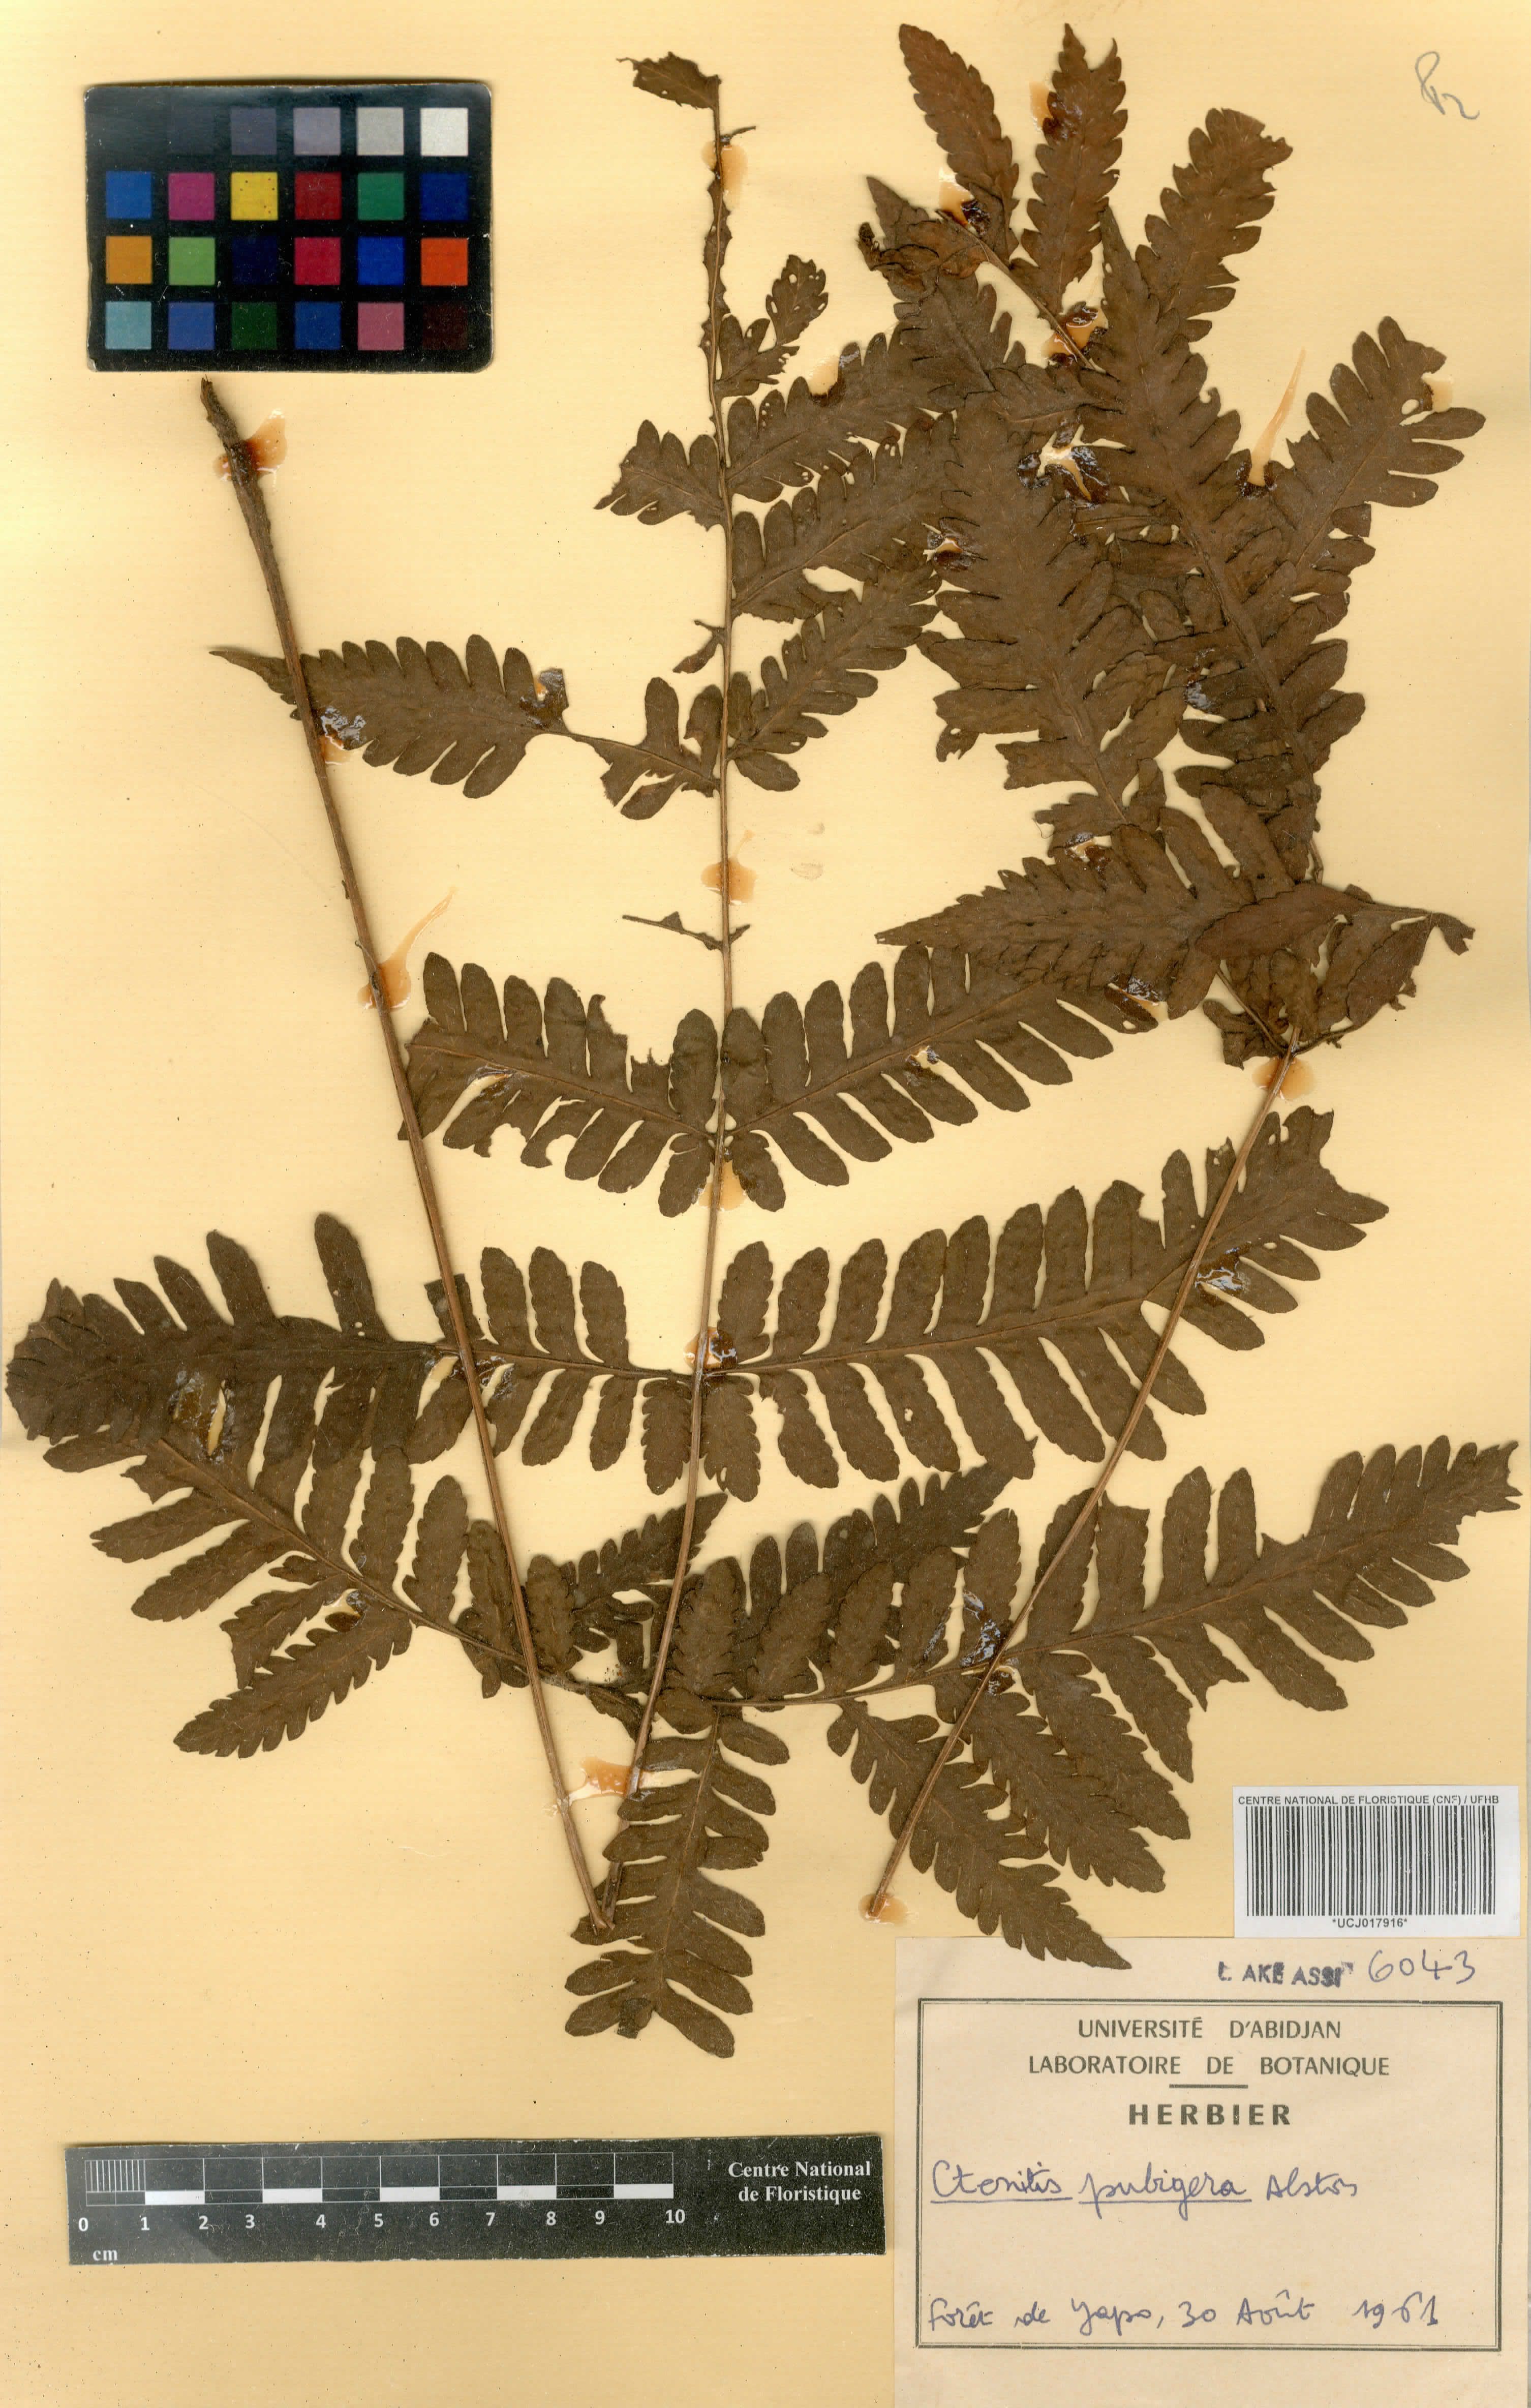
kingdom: Plantae
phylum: Tracheophyta
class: Polypodiopsida
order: Polypodiales
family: Dryopteridaceae
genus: Parapolystichum
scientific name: Parapolystichum nigritianum
